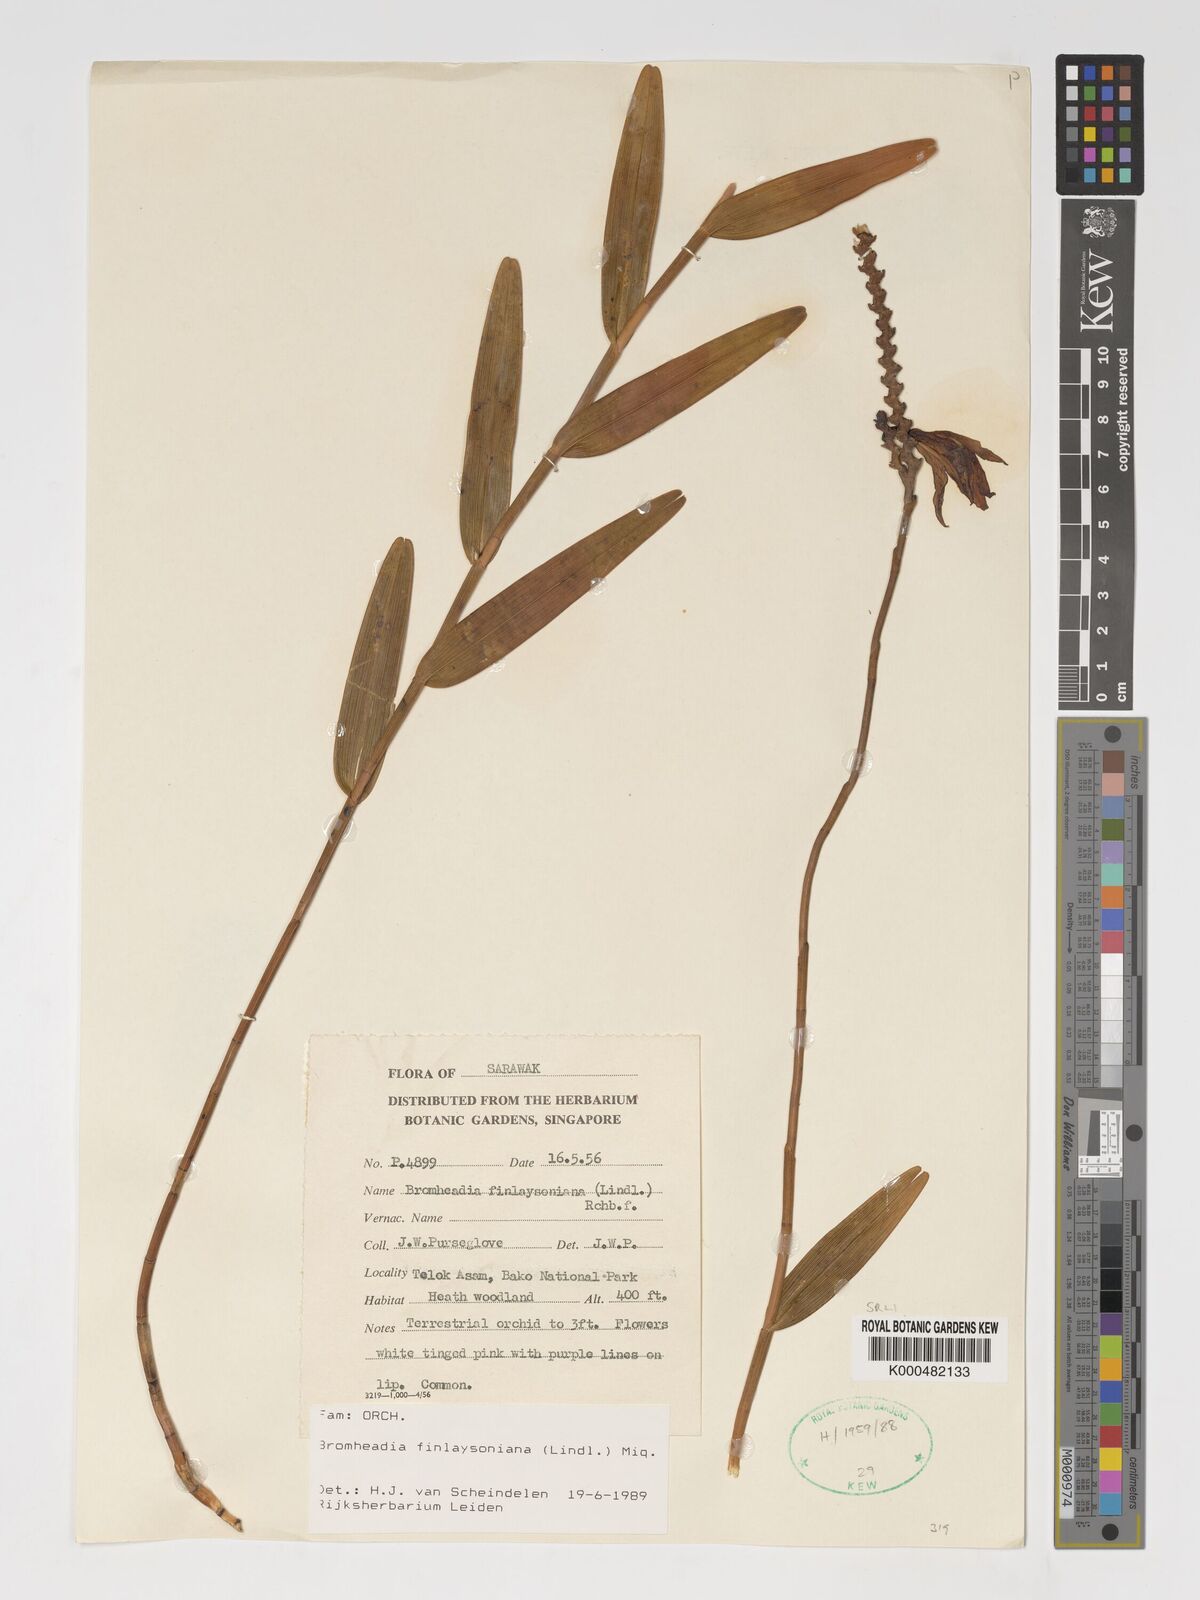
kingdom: Plantae
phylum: Tracheophyta
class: Liliopsida
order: Asparagales
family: Orchidaceae
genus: Bromheadia
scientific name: Bromheadia finlaysoniana
